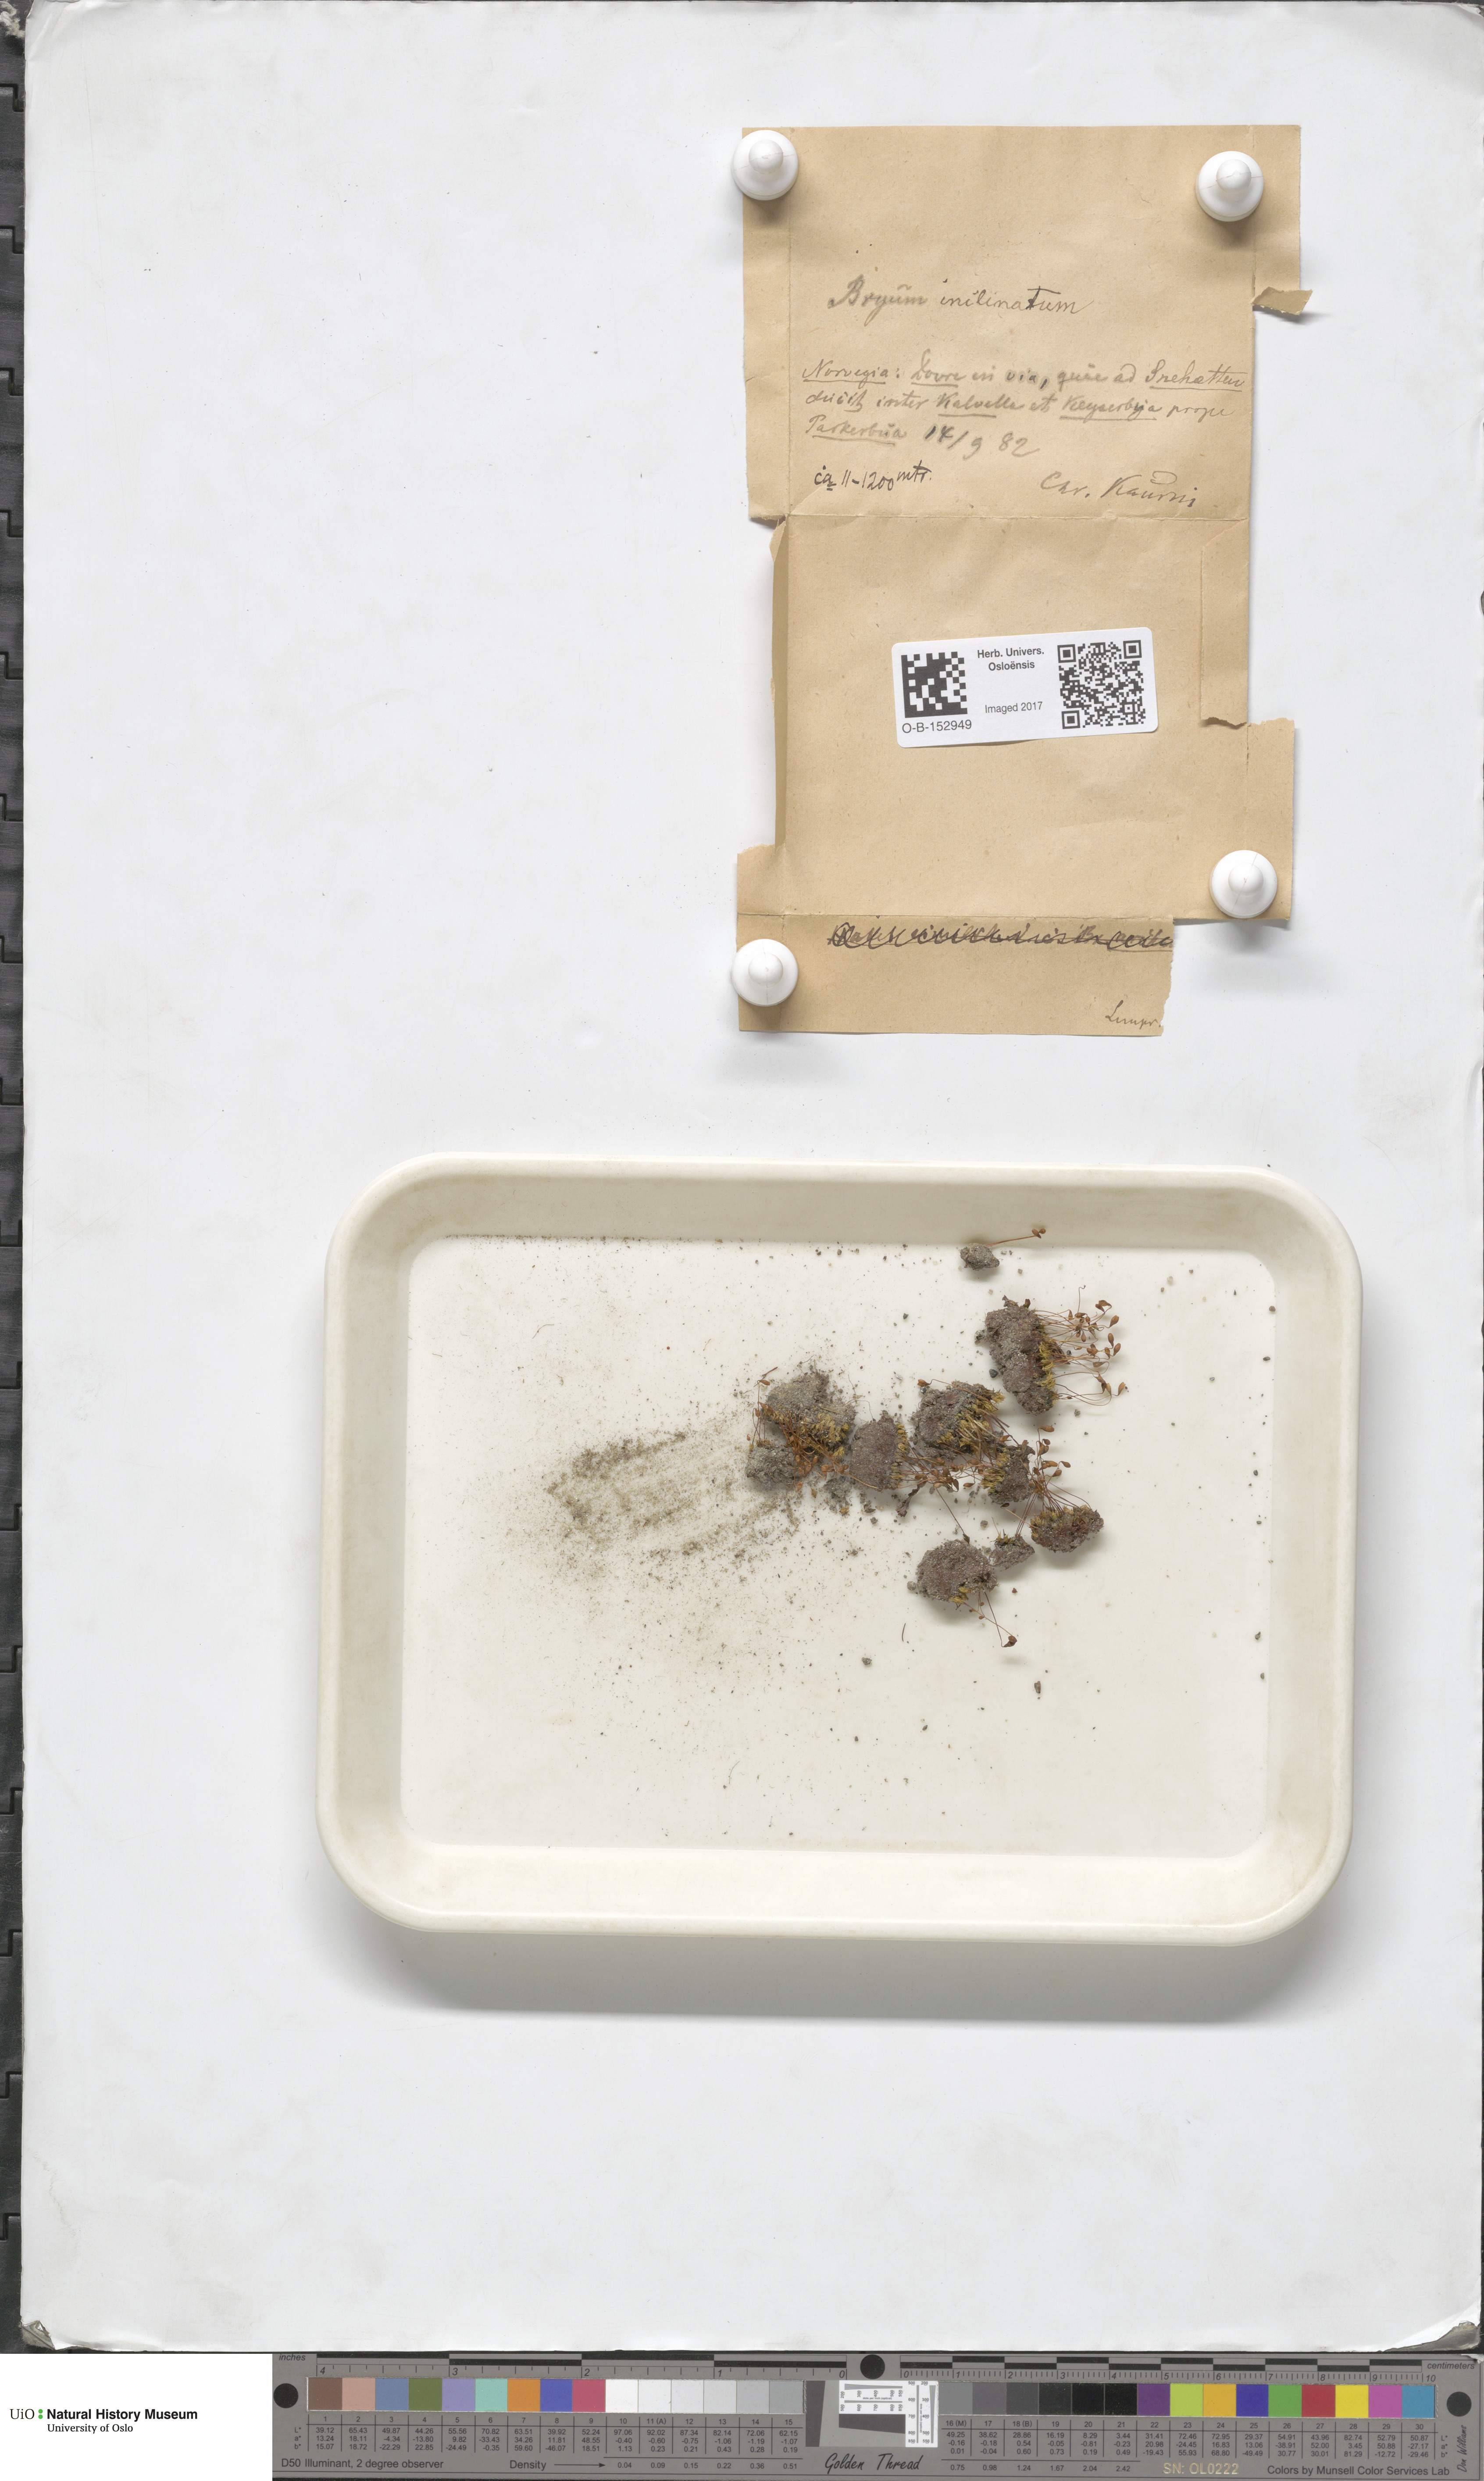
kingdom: Plantae
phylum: Bryophyta
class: Bryopsida
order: Bryales
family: Bryaceae
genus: Ptychostomum
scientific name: Ptychostomum inclinatum
